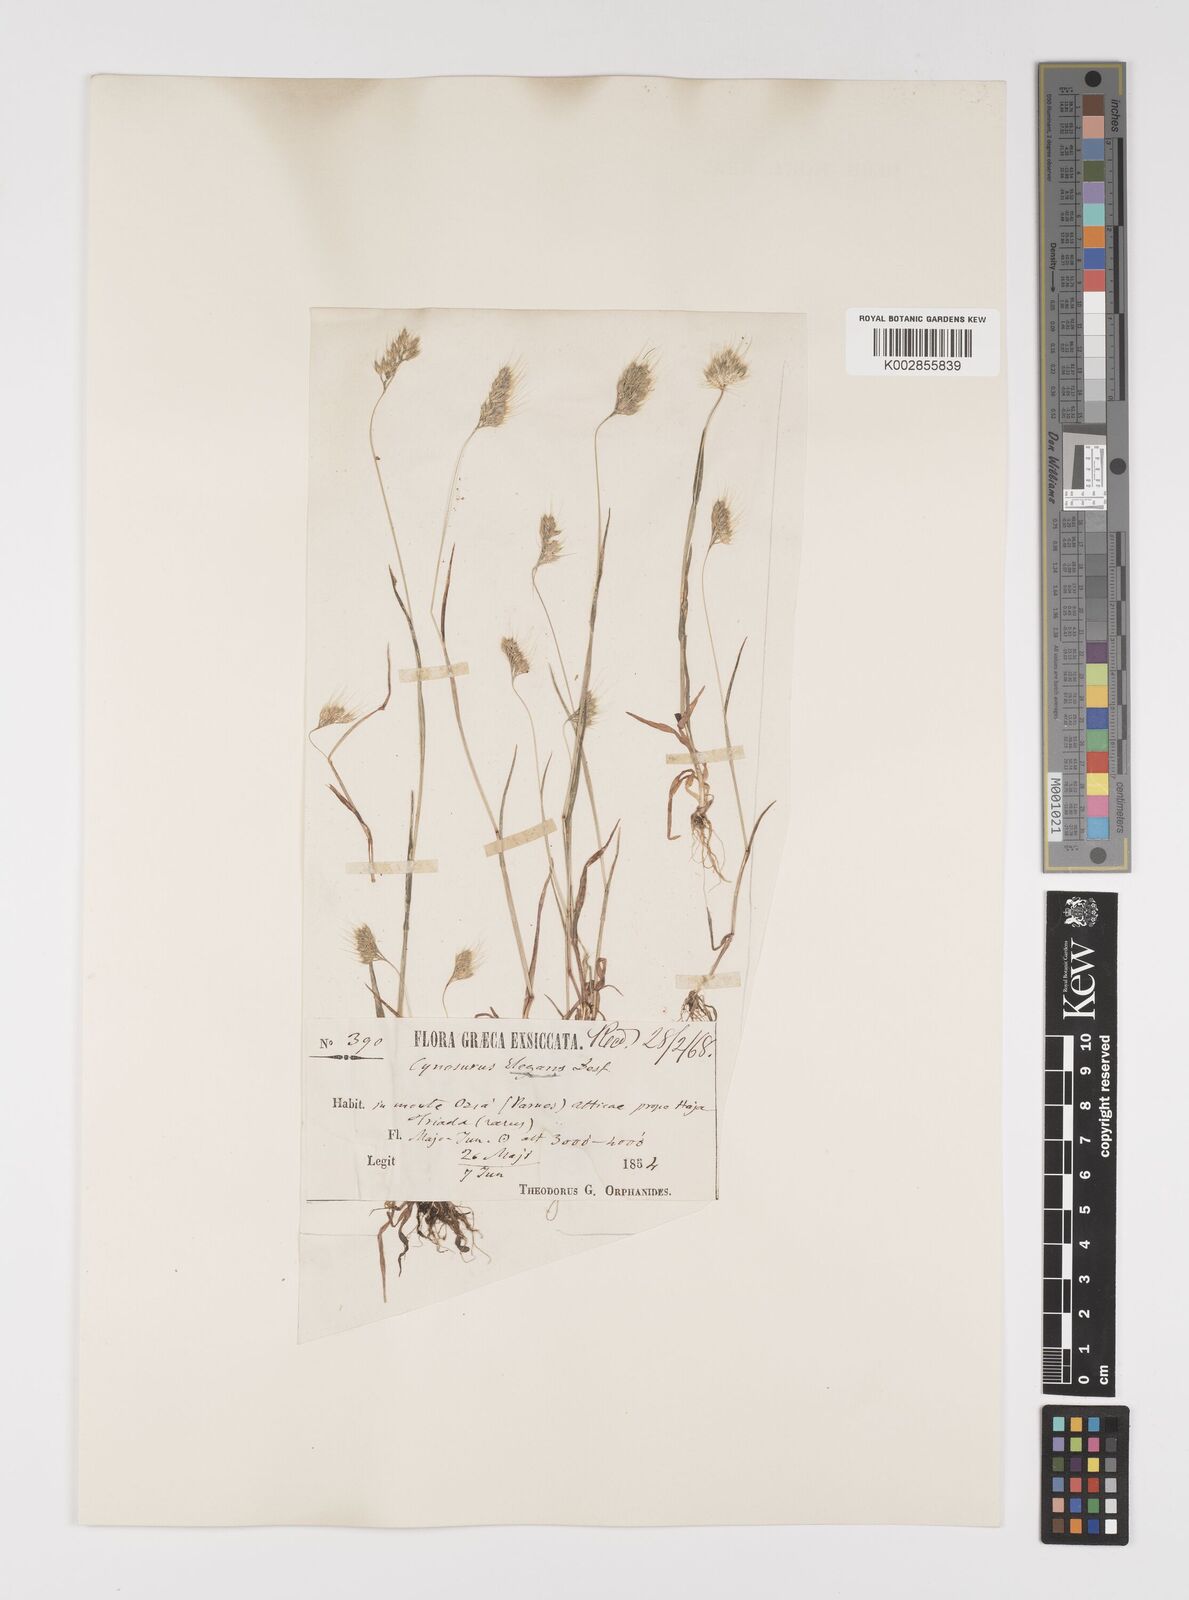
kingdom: Plantae
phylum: Tracheophyta
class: Liliopsida
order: Poales
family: Poaceae
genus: Cynosurus
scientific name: Cynosurus elegans
